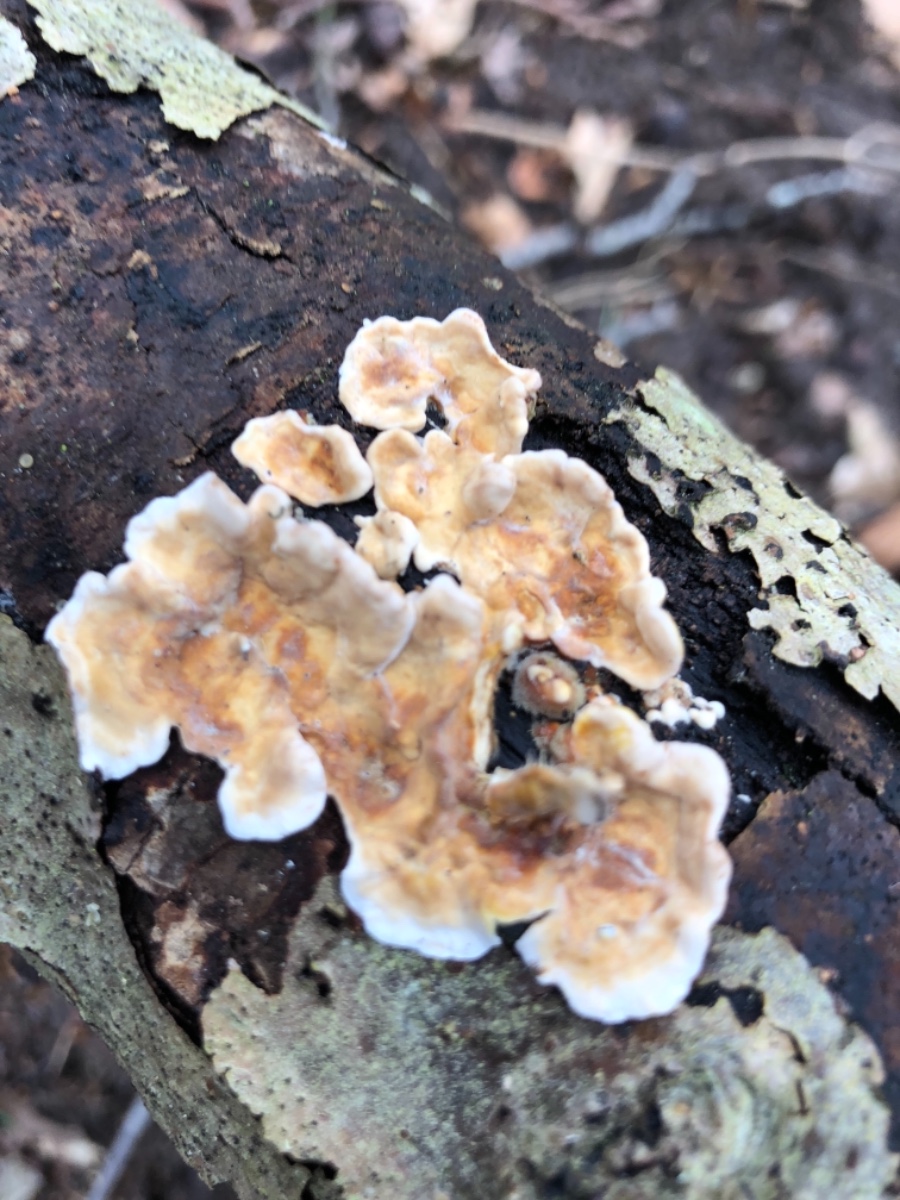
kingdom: Fungi
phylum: Basidiomycota
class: Agaricomycetes
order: Russulales
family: Stereaceae
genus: Stereum
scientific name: Stereum hirsutum
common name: håret lædersvamp
